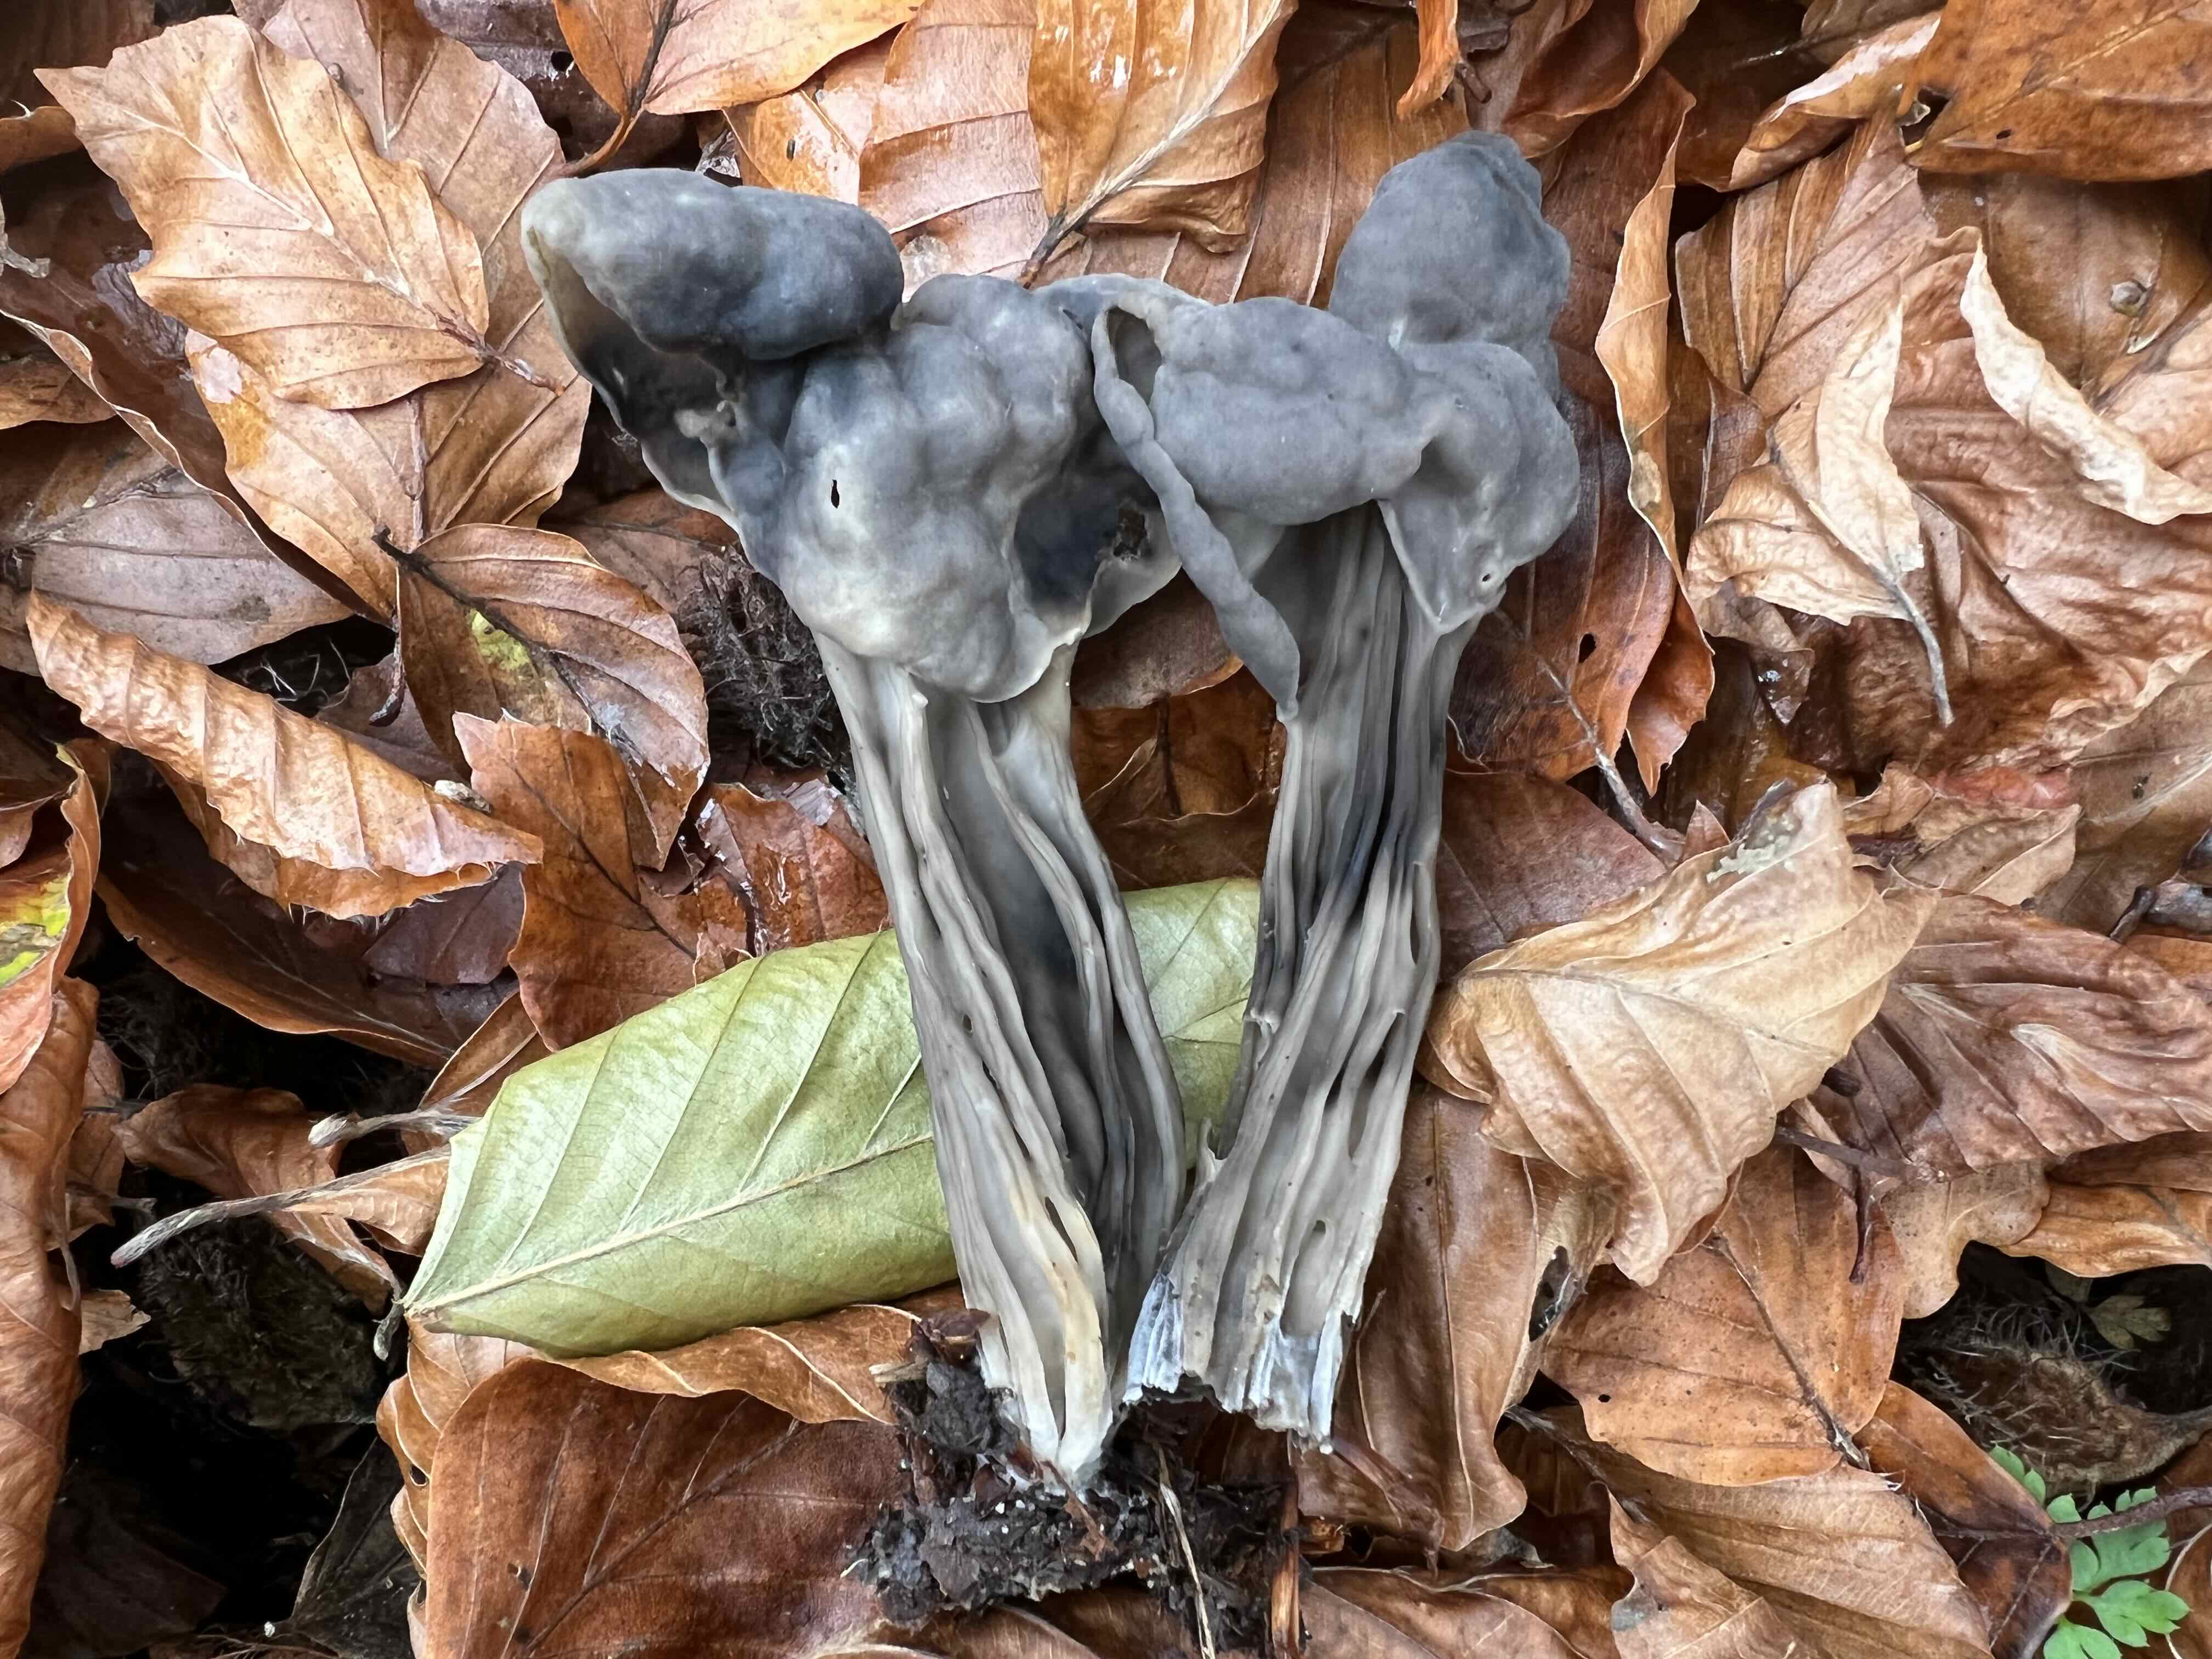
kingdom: Fungi
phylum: Ascomycota
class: Pezizomycetes
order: Pezizales
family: Helvellaceae
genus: Helvella
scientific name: Helvella lacunosa
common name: grubet foldhat
